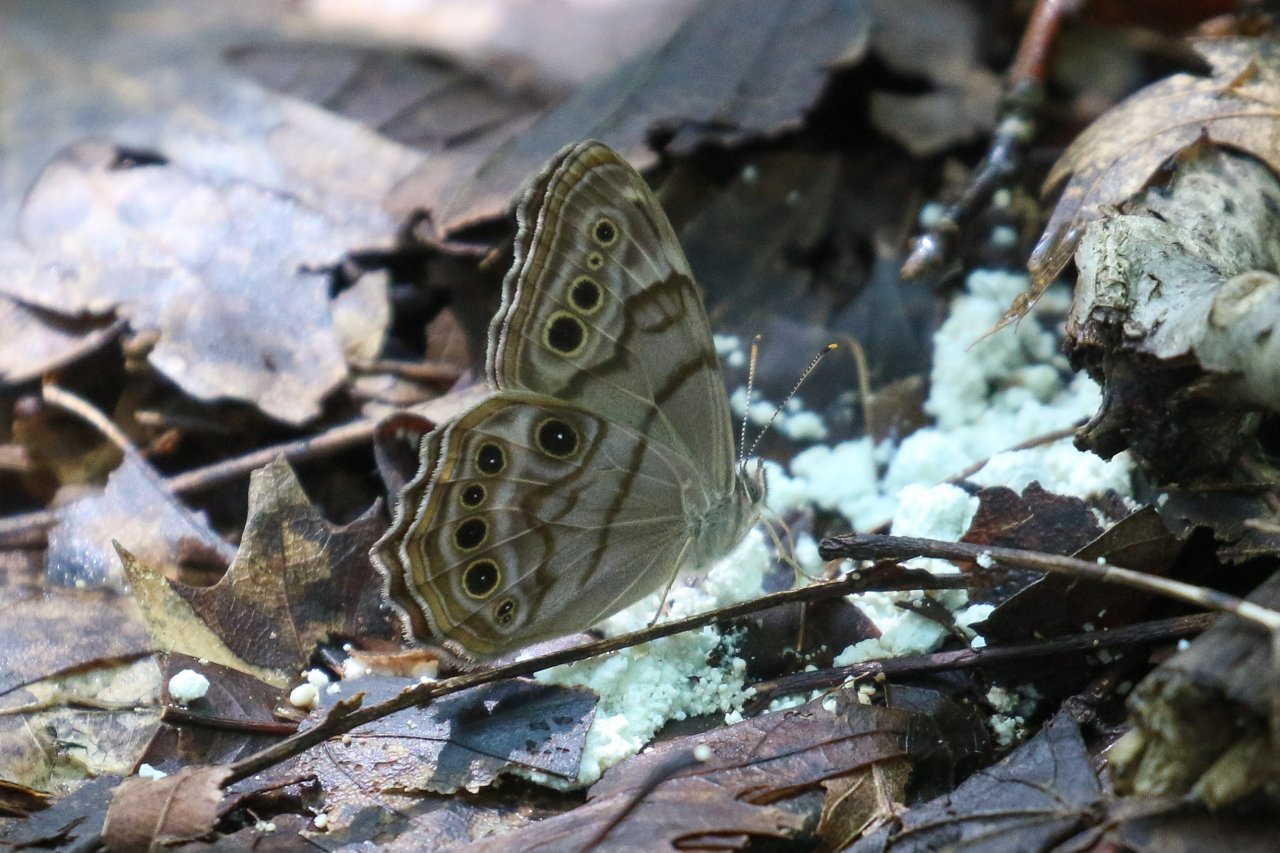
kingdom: Animalia
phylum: Arthropoda
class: Insecta
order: Lepidoptera
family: Nymphalidae
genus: Lethe
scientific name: Lethe anthedon
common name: Northern Pearly-Eye
